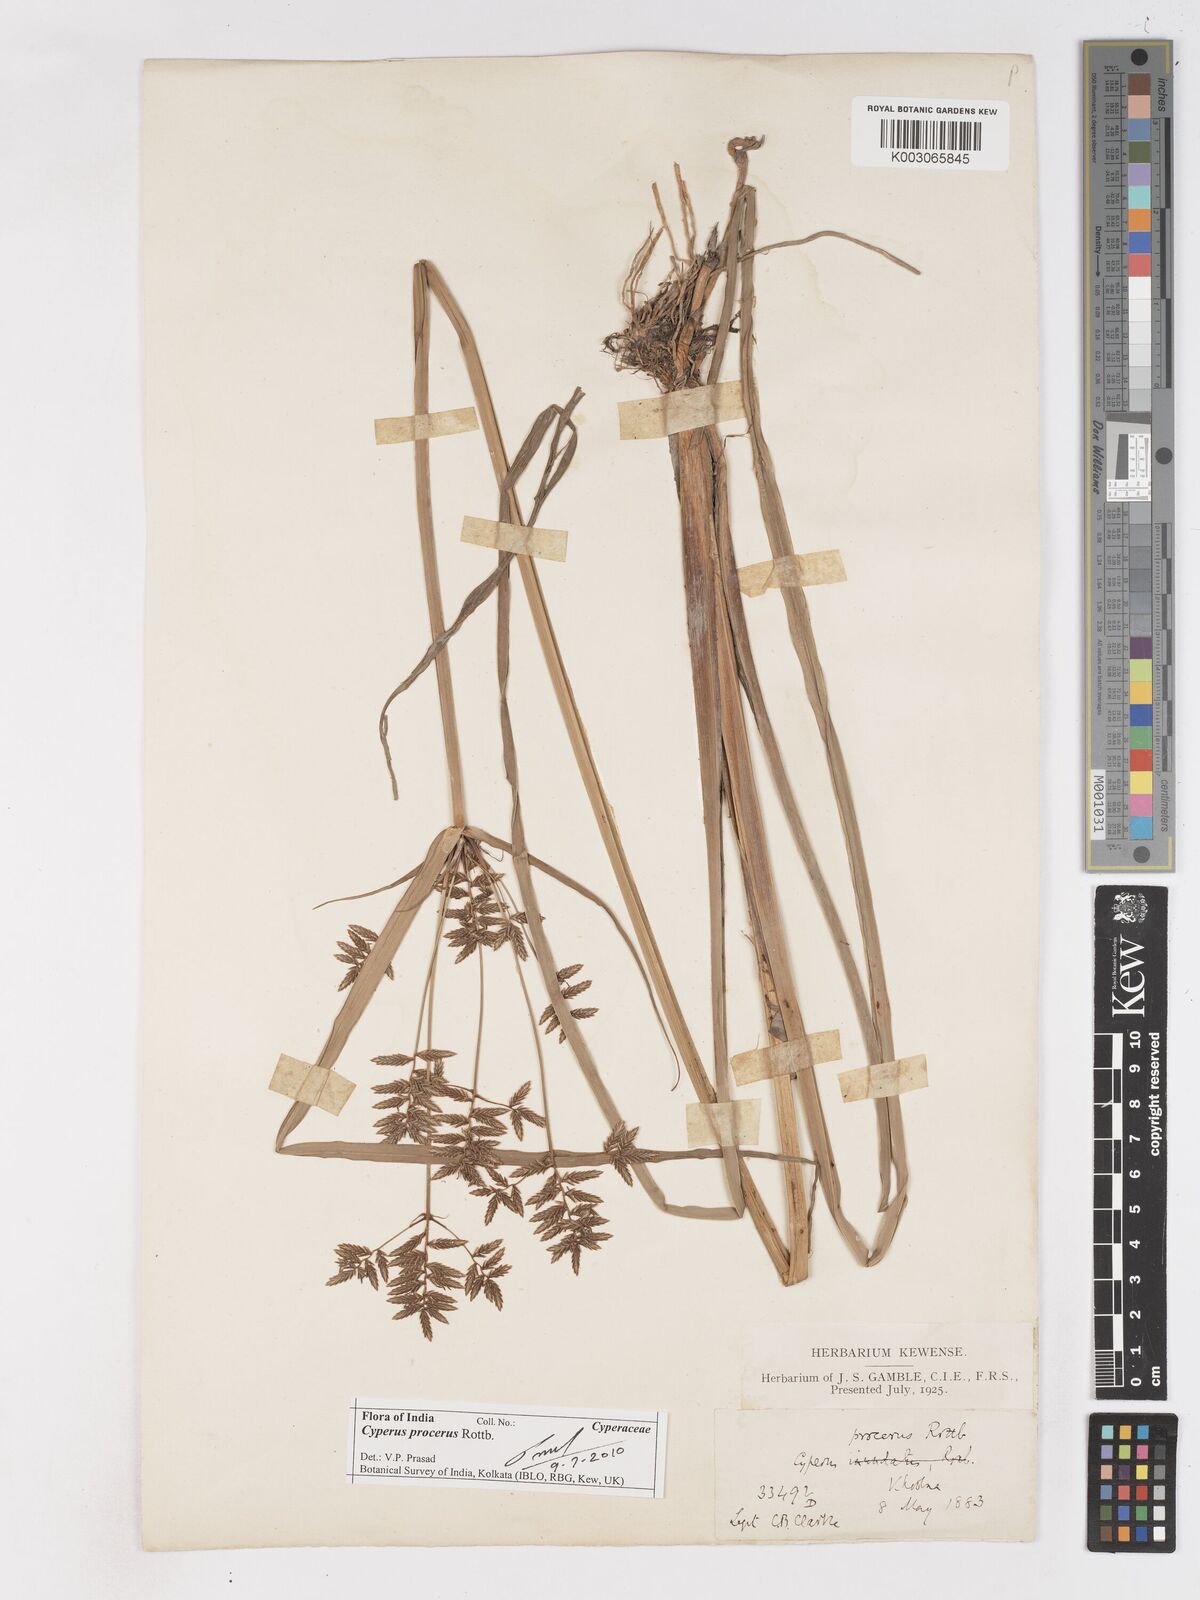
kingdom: Plantae
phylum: Tracheophyta
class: Liliopsida
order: Poales
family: Cyperaceae
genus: Cyperus
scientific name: Cyperus procerus
